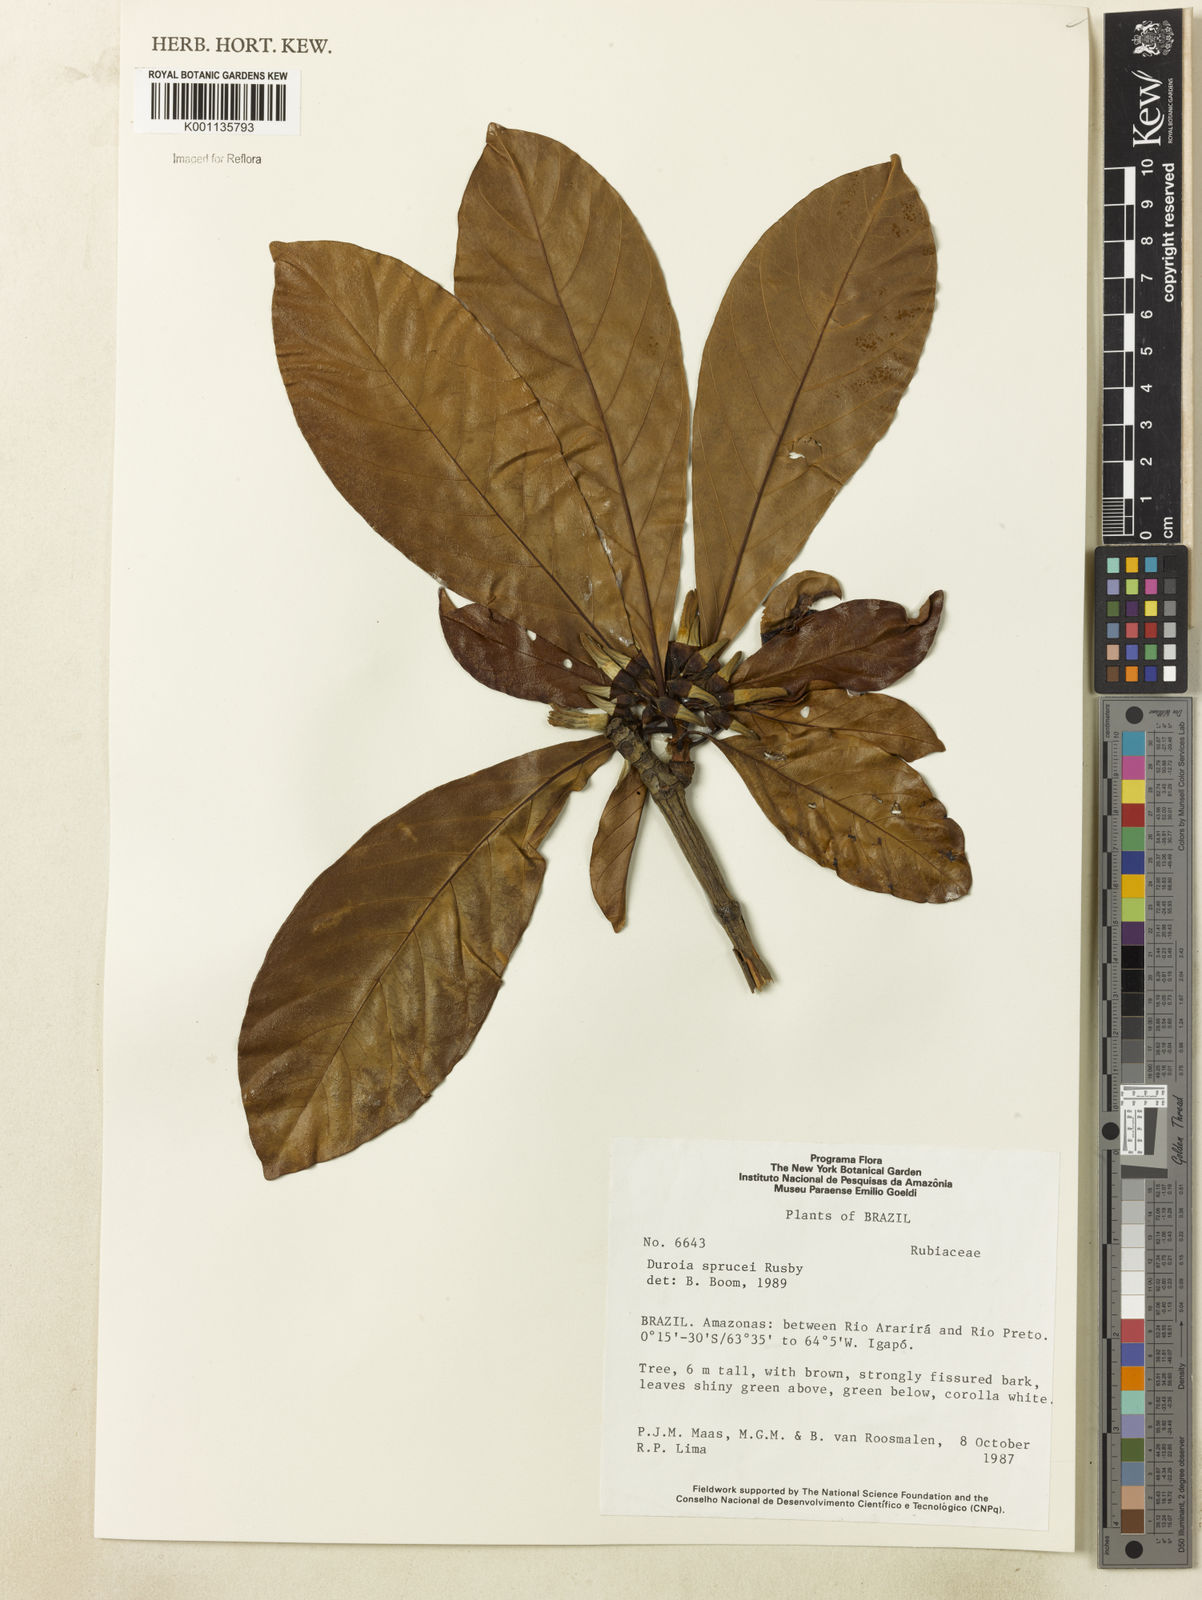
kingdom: Plantae
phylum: Tracheophyta
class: Magnoliopsida
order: Gentianales
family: Rubiaceae
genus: Duroia
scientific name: Duroia micrantha
